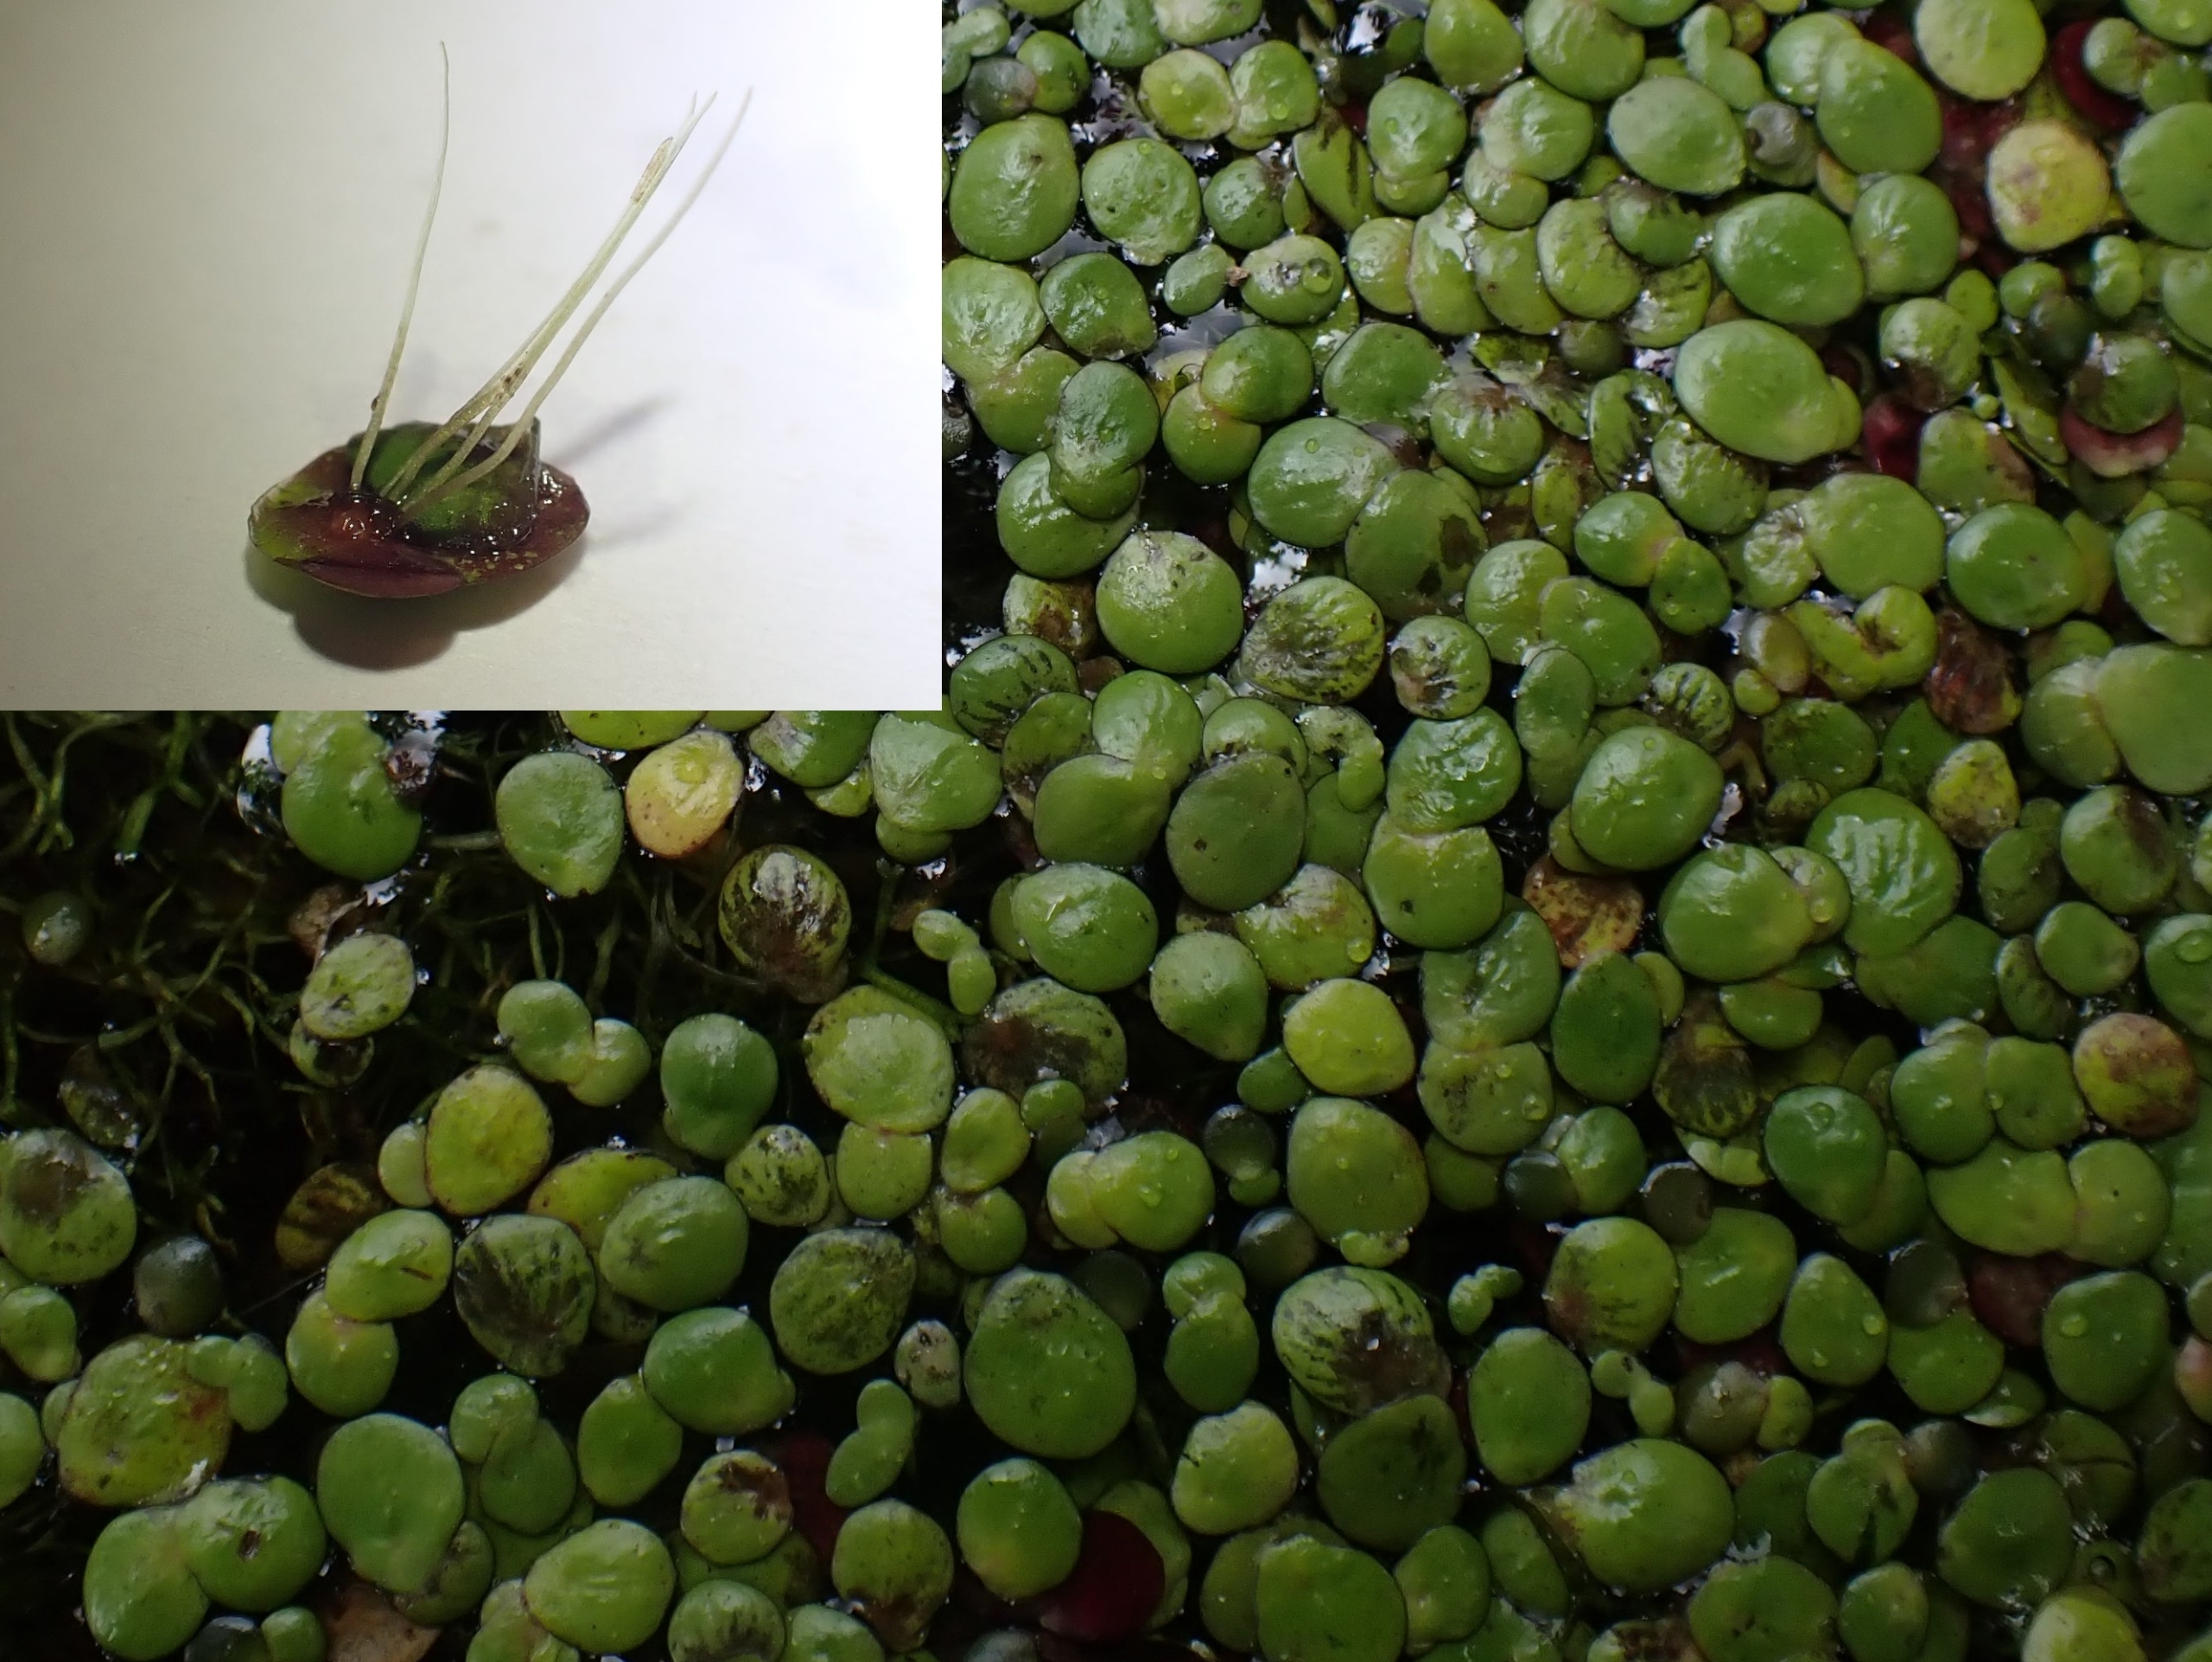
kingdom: Plantae
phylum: Tracheophyta
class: Liliopsida
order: Alismatales
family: Araceae
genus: Spirodela
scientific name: Spirodela polyrhiza
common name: Stor andemad
